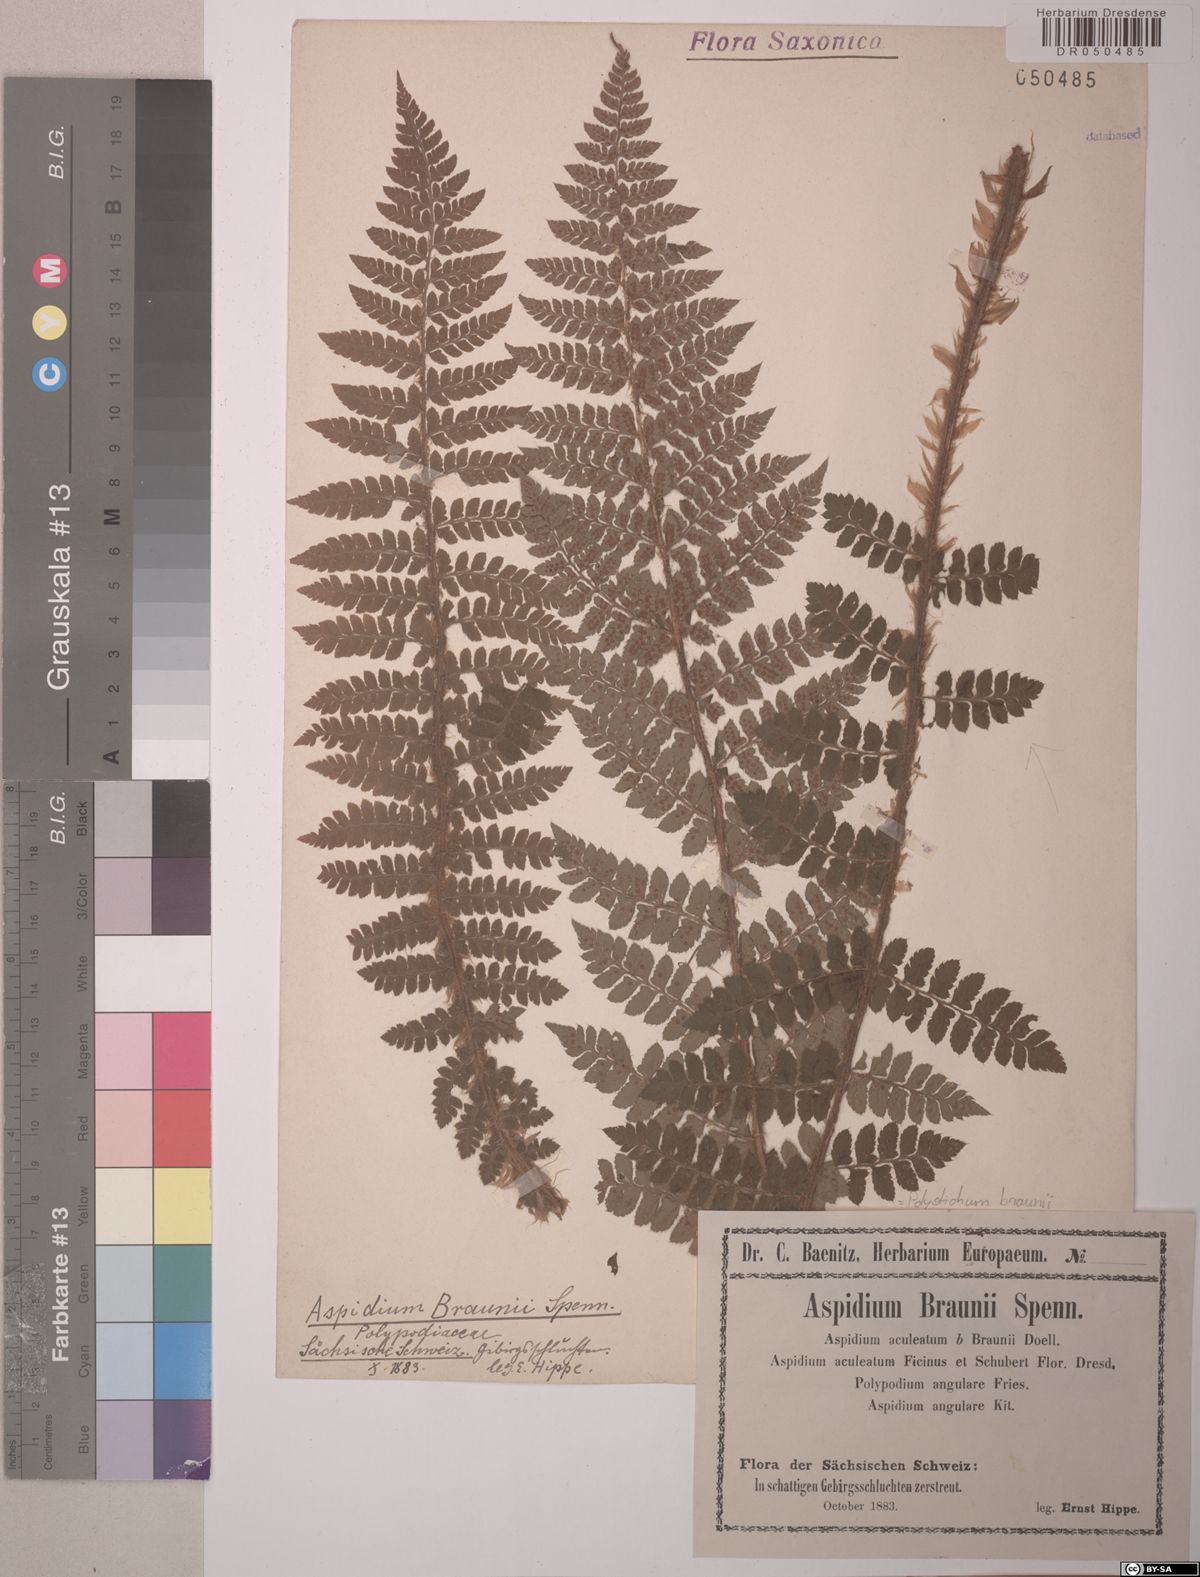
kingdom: Plantae
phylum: Tracheophyta
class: Polypodiopsida
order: Polypodiales
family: Dryopteridaceae
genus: Polystichum
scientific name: Polystichum braunii
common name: Braun's holly fern
